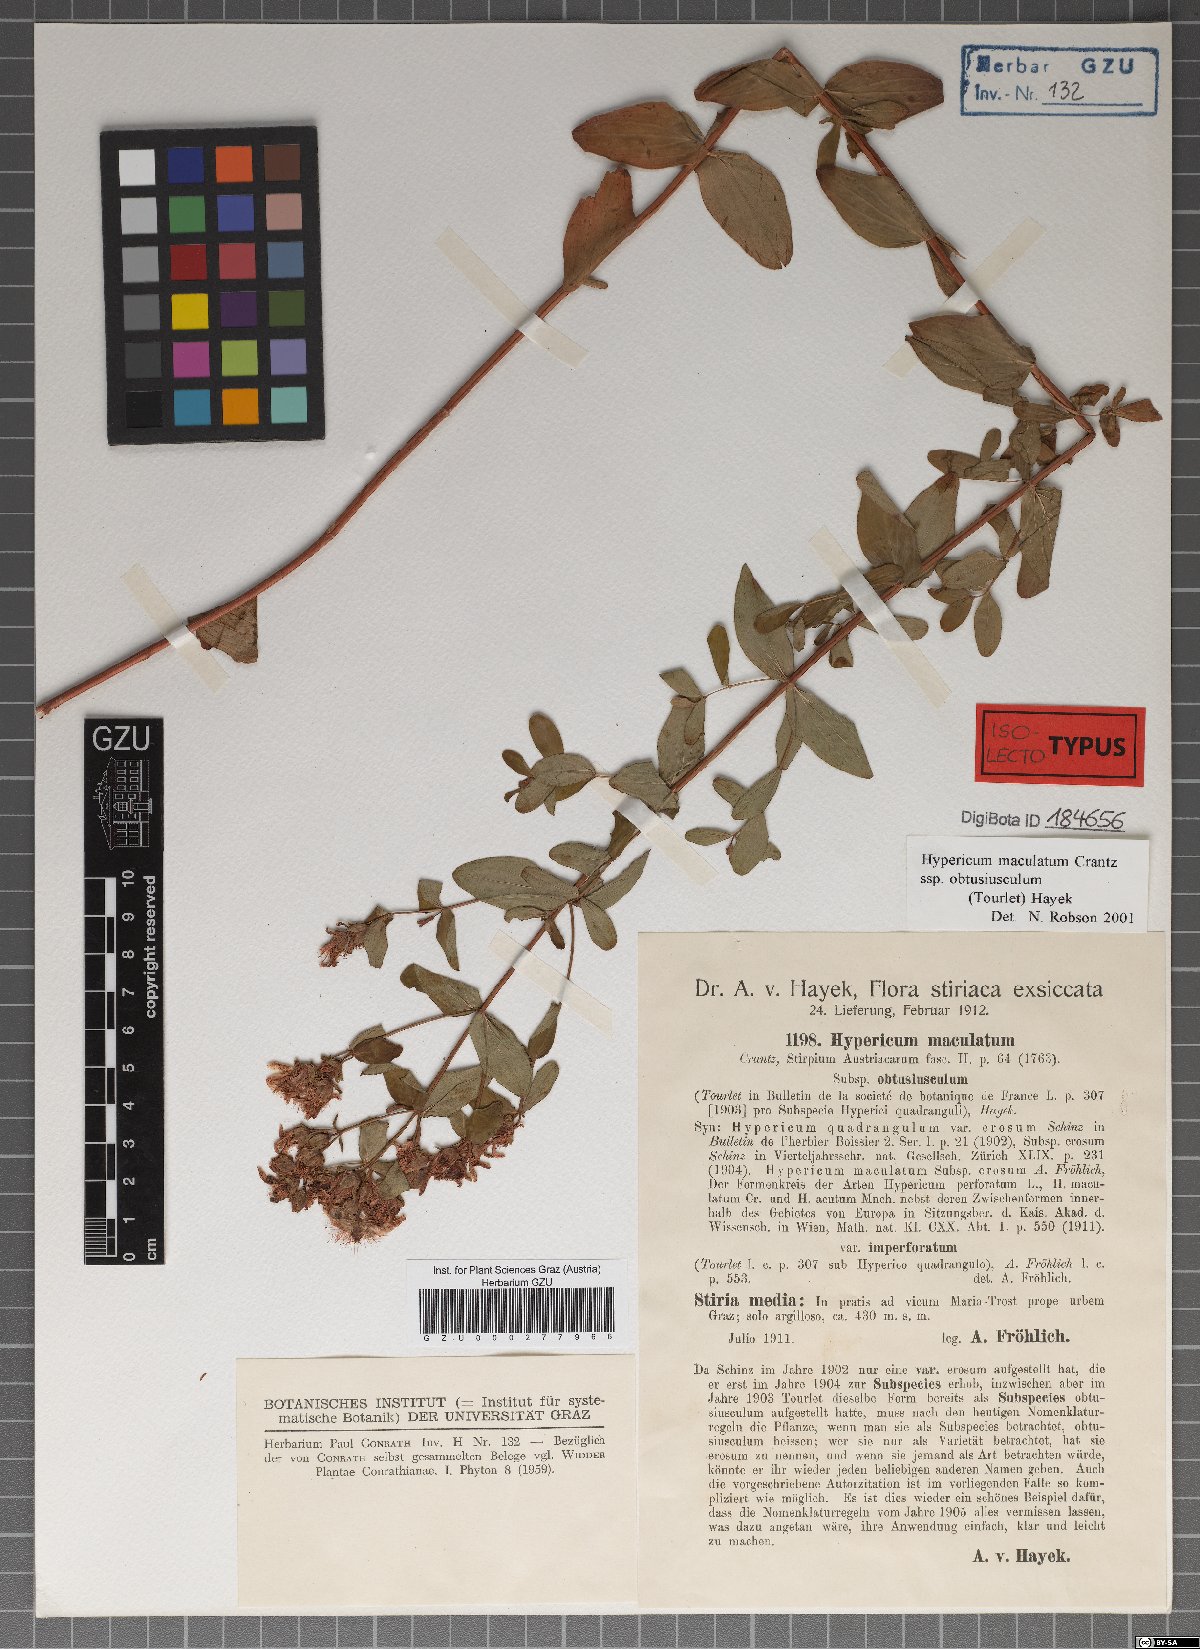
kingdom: Plantae
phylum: Tracheophyta
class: Magnoliopsida
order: Malpighiales
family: Hypericaceae
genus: Hypericum
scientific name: Hypericum dubium
